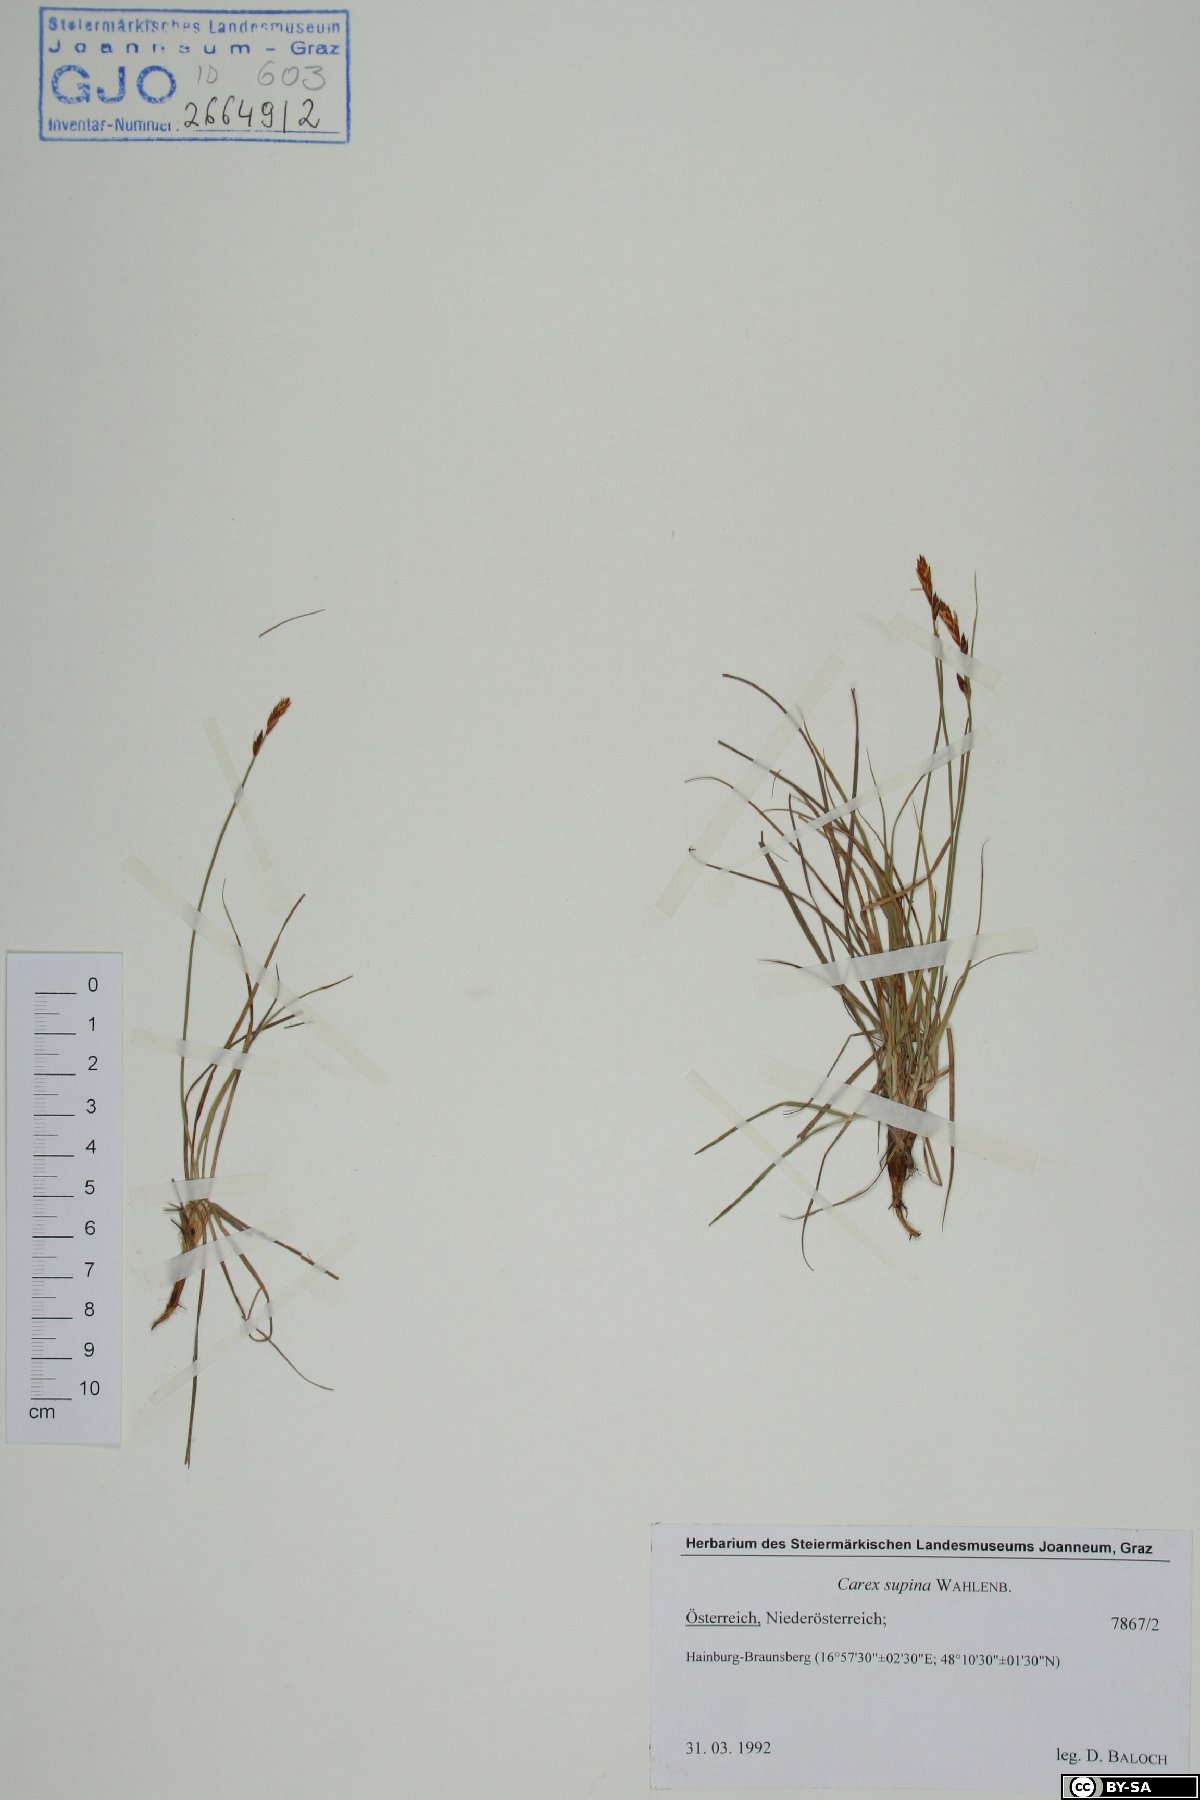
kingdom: Plantae
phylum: Tracheophyta
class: Liliopsida
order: Poales
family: Cyperaceae
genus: Carex
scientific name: Carex supina
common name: Lying-back sedge
